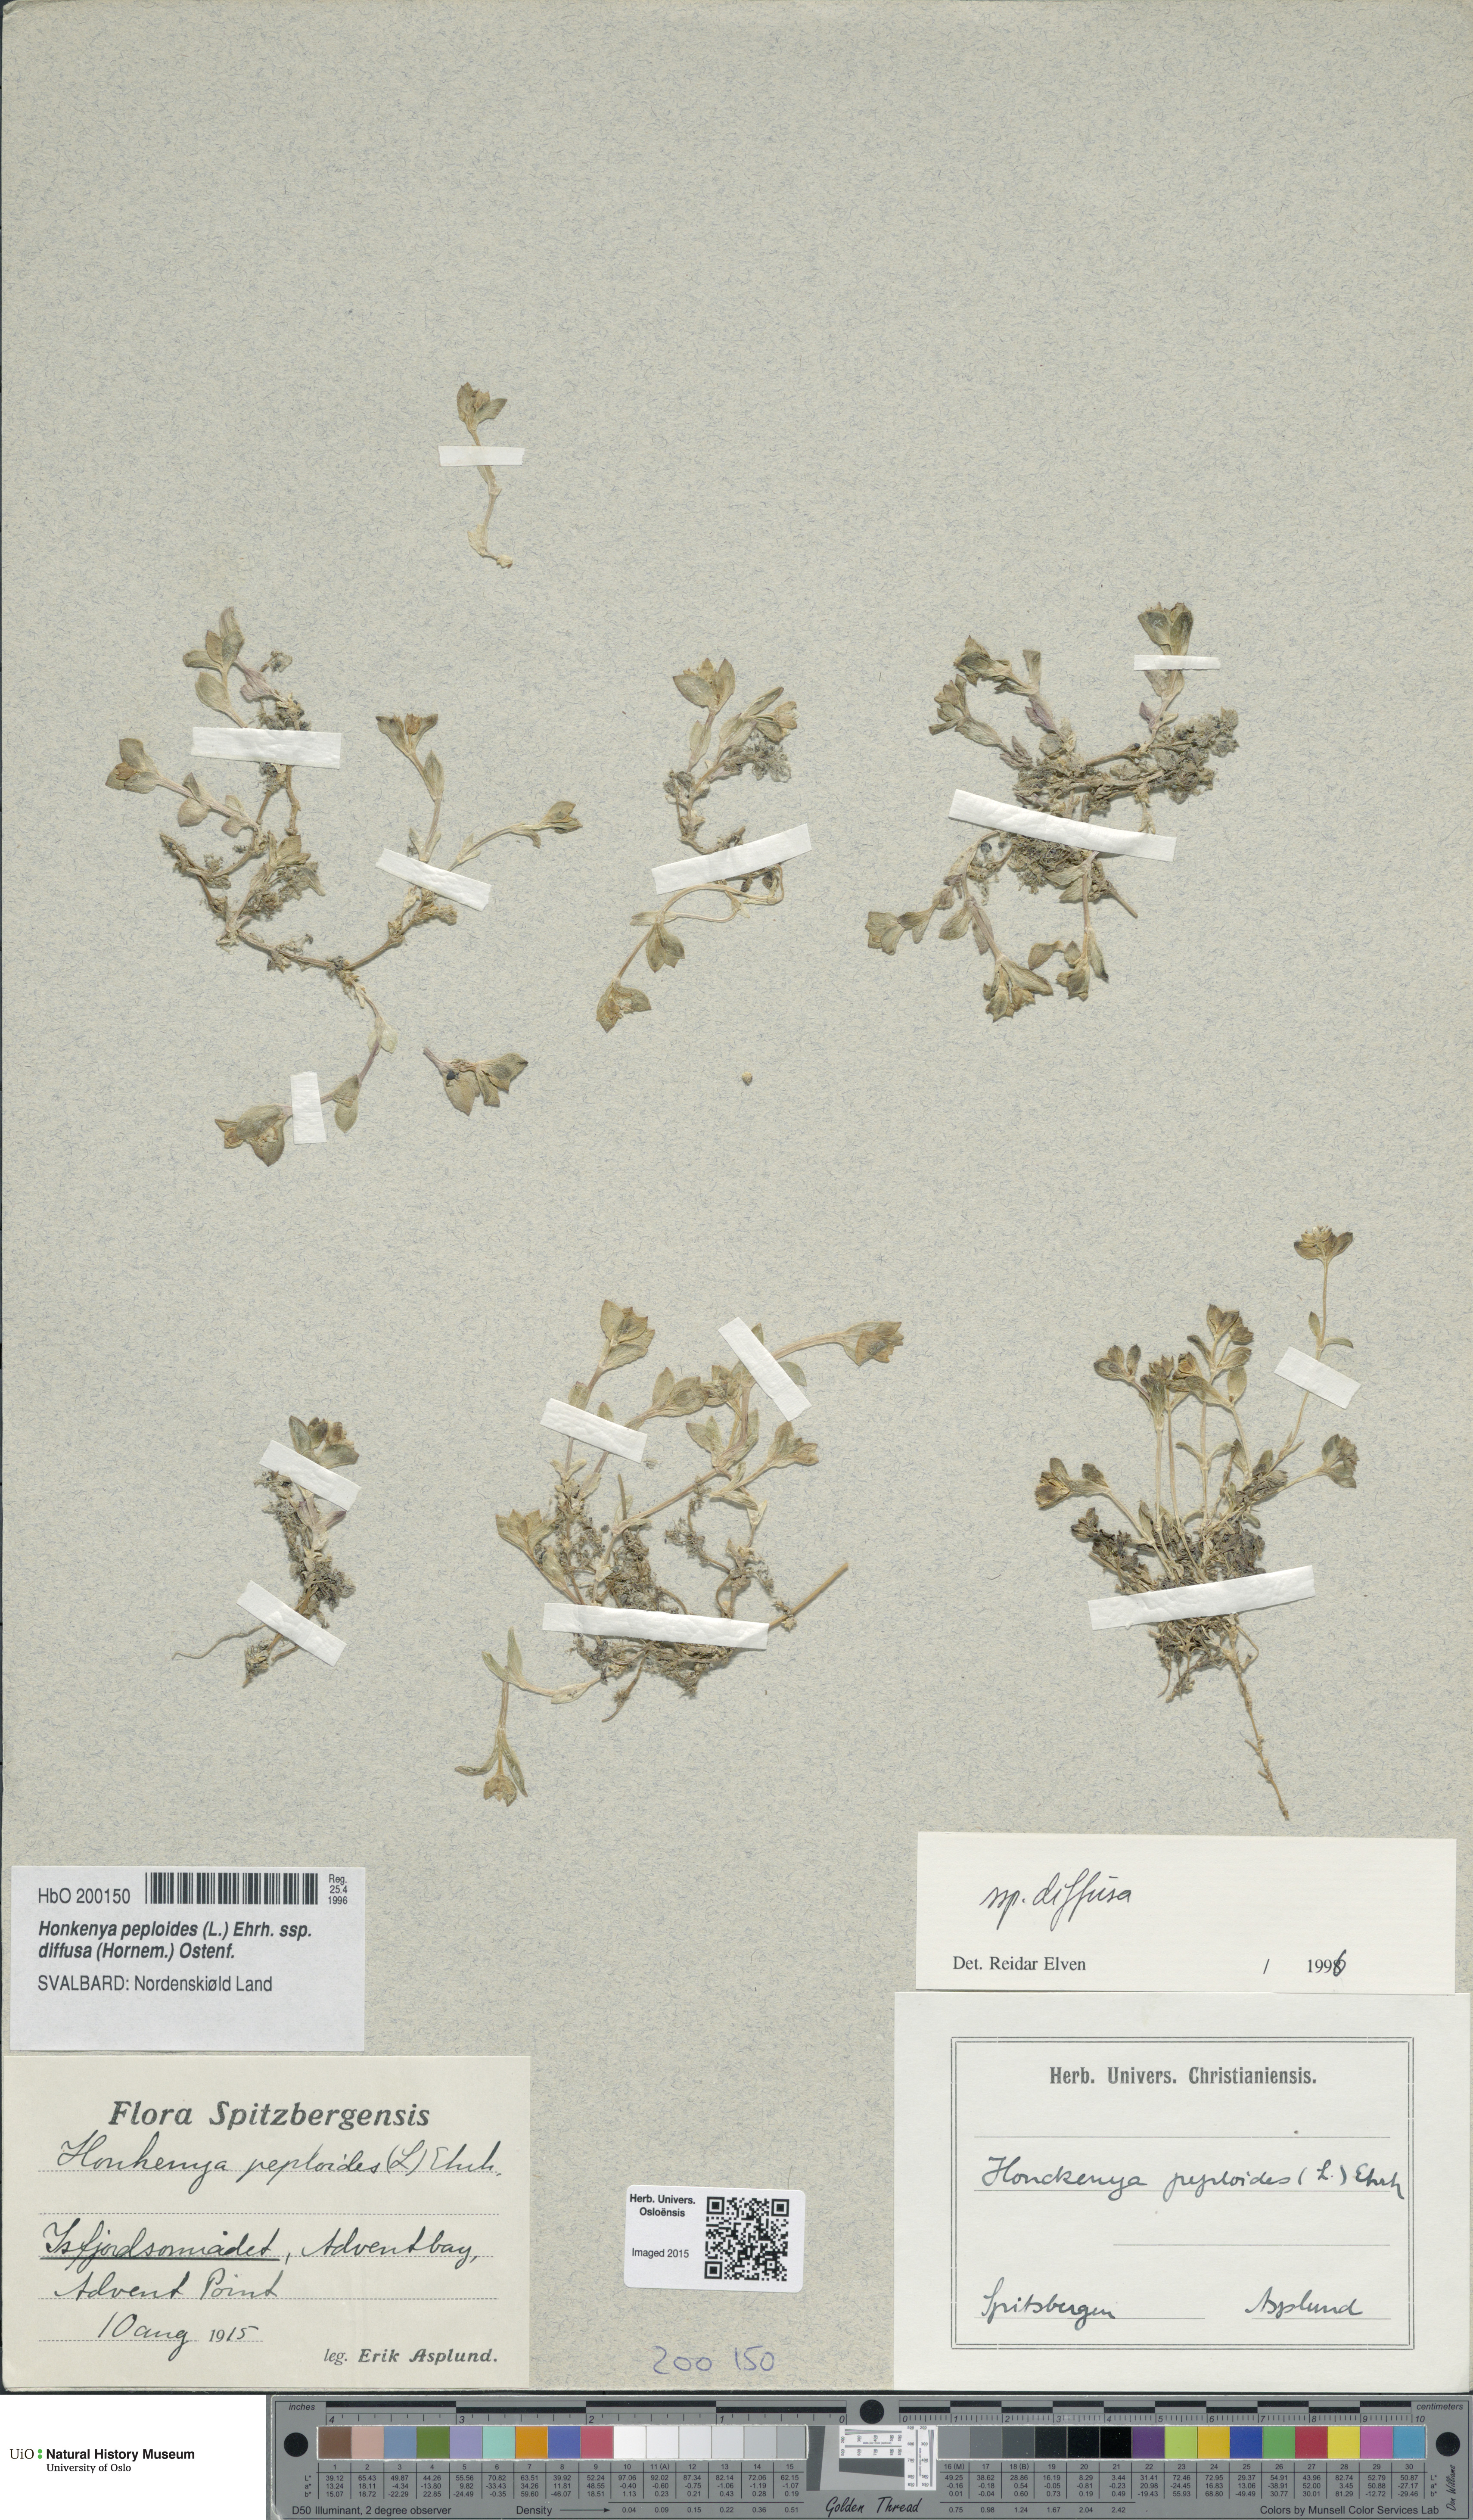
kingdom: Plantae
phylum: Tracheophyta
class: Magnoliopsida
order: Caryophyllales
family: Caryophyllaceae
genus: Honckenya
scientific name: Honckenya peploides
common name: Sea sandwort
